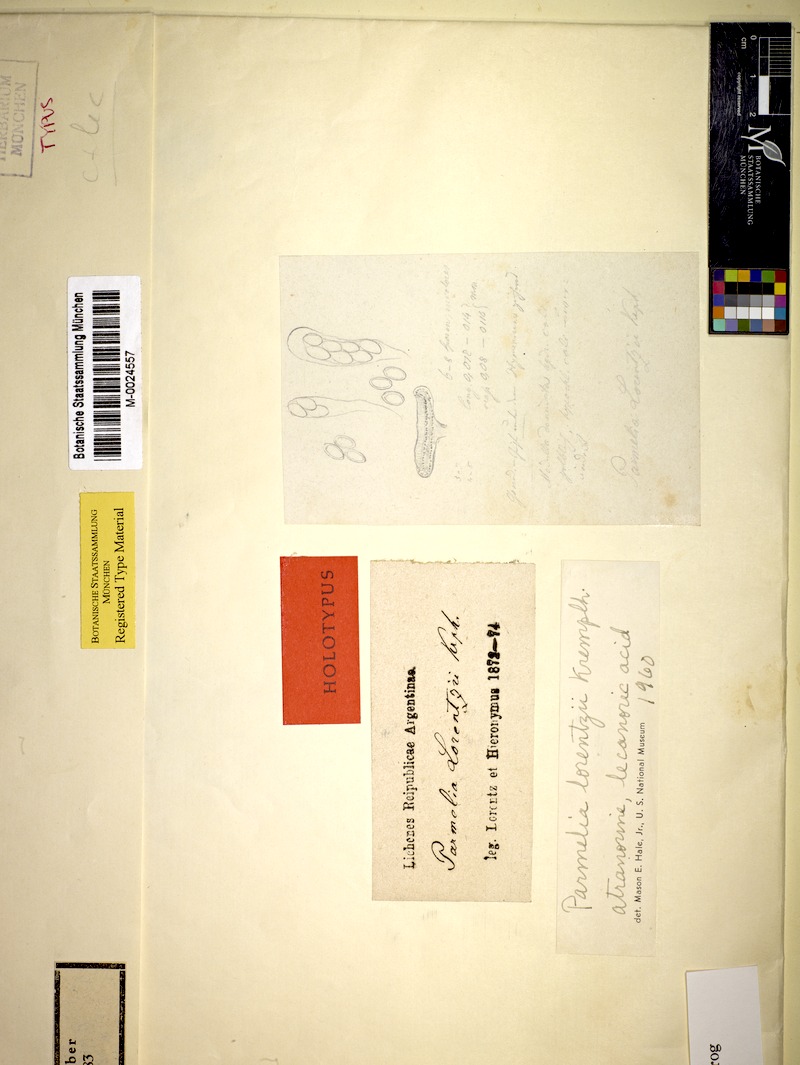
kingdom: Fungi
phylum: Ascomycota
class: Lecanoromycetes
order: Lecanorales
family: Parmeliaceae
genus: Punctelia
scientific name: Punctelia
